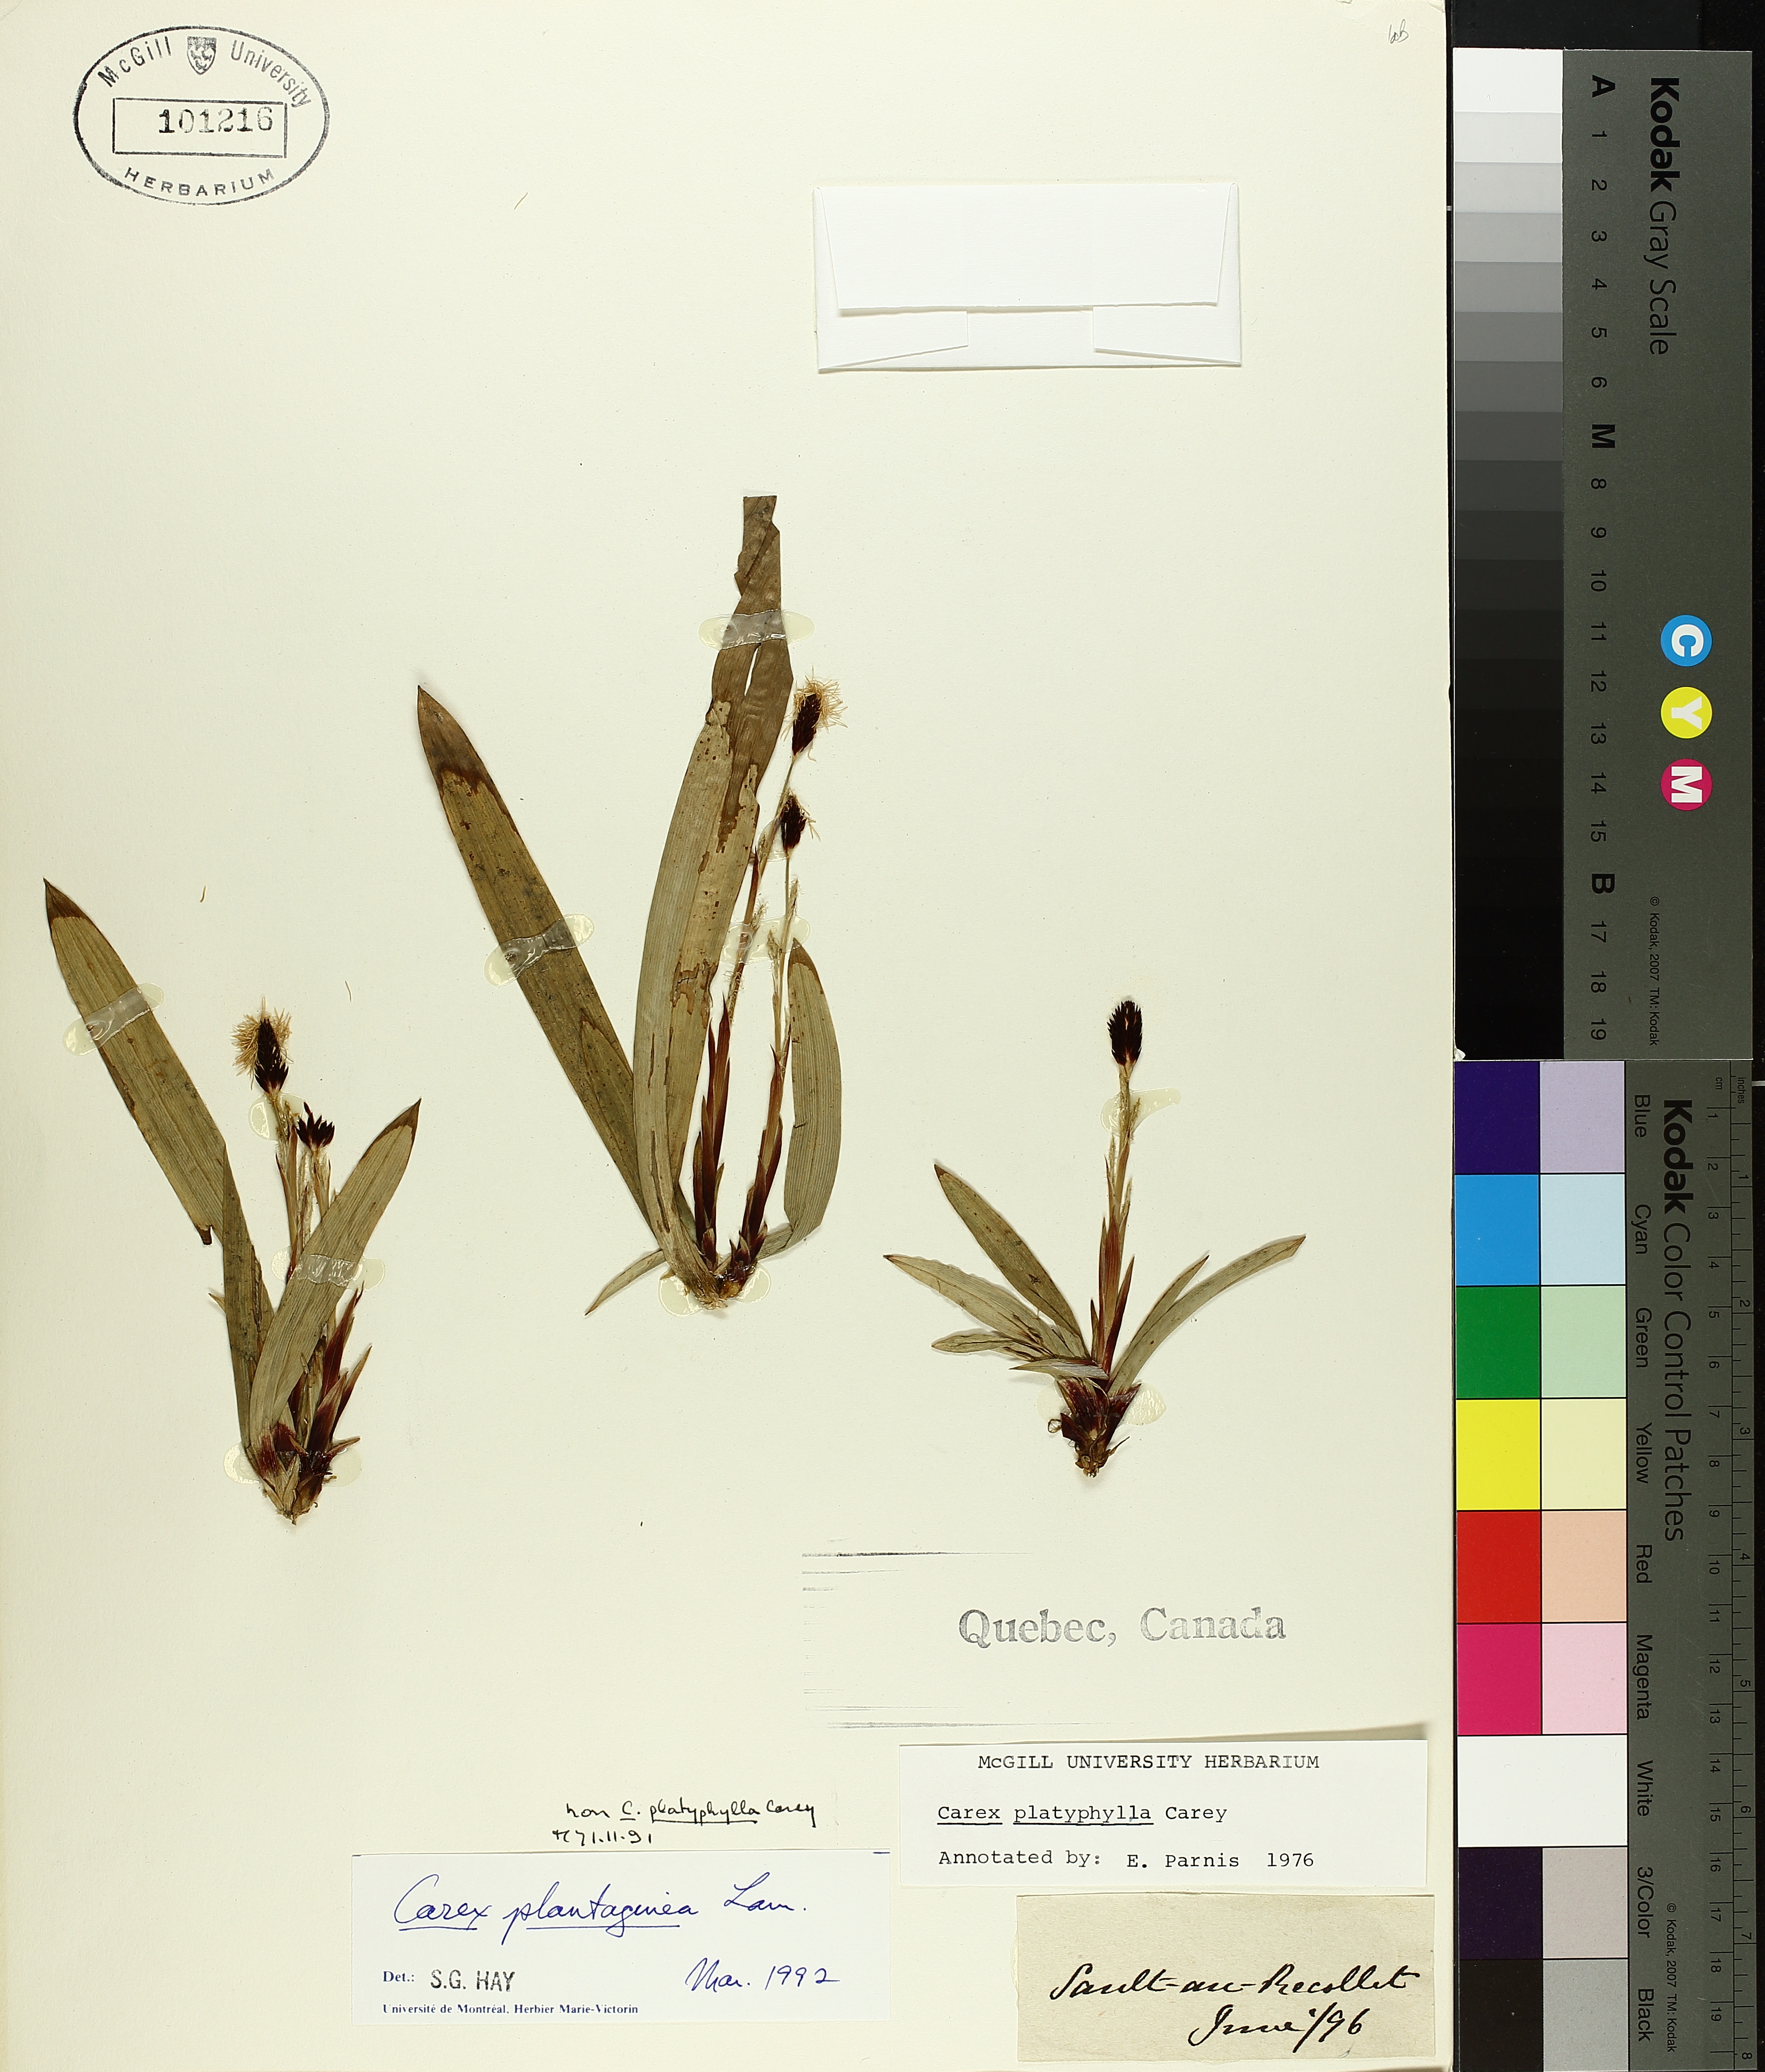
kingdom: Plantae
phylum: Tracheophyta
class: Liliopsida
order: Poales
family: Cyperaceae
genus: Carex
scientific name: Carex plantaginea
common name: Plantain-leaved sedge
